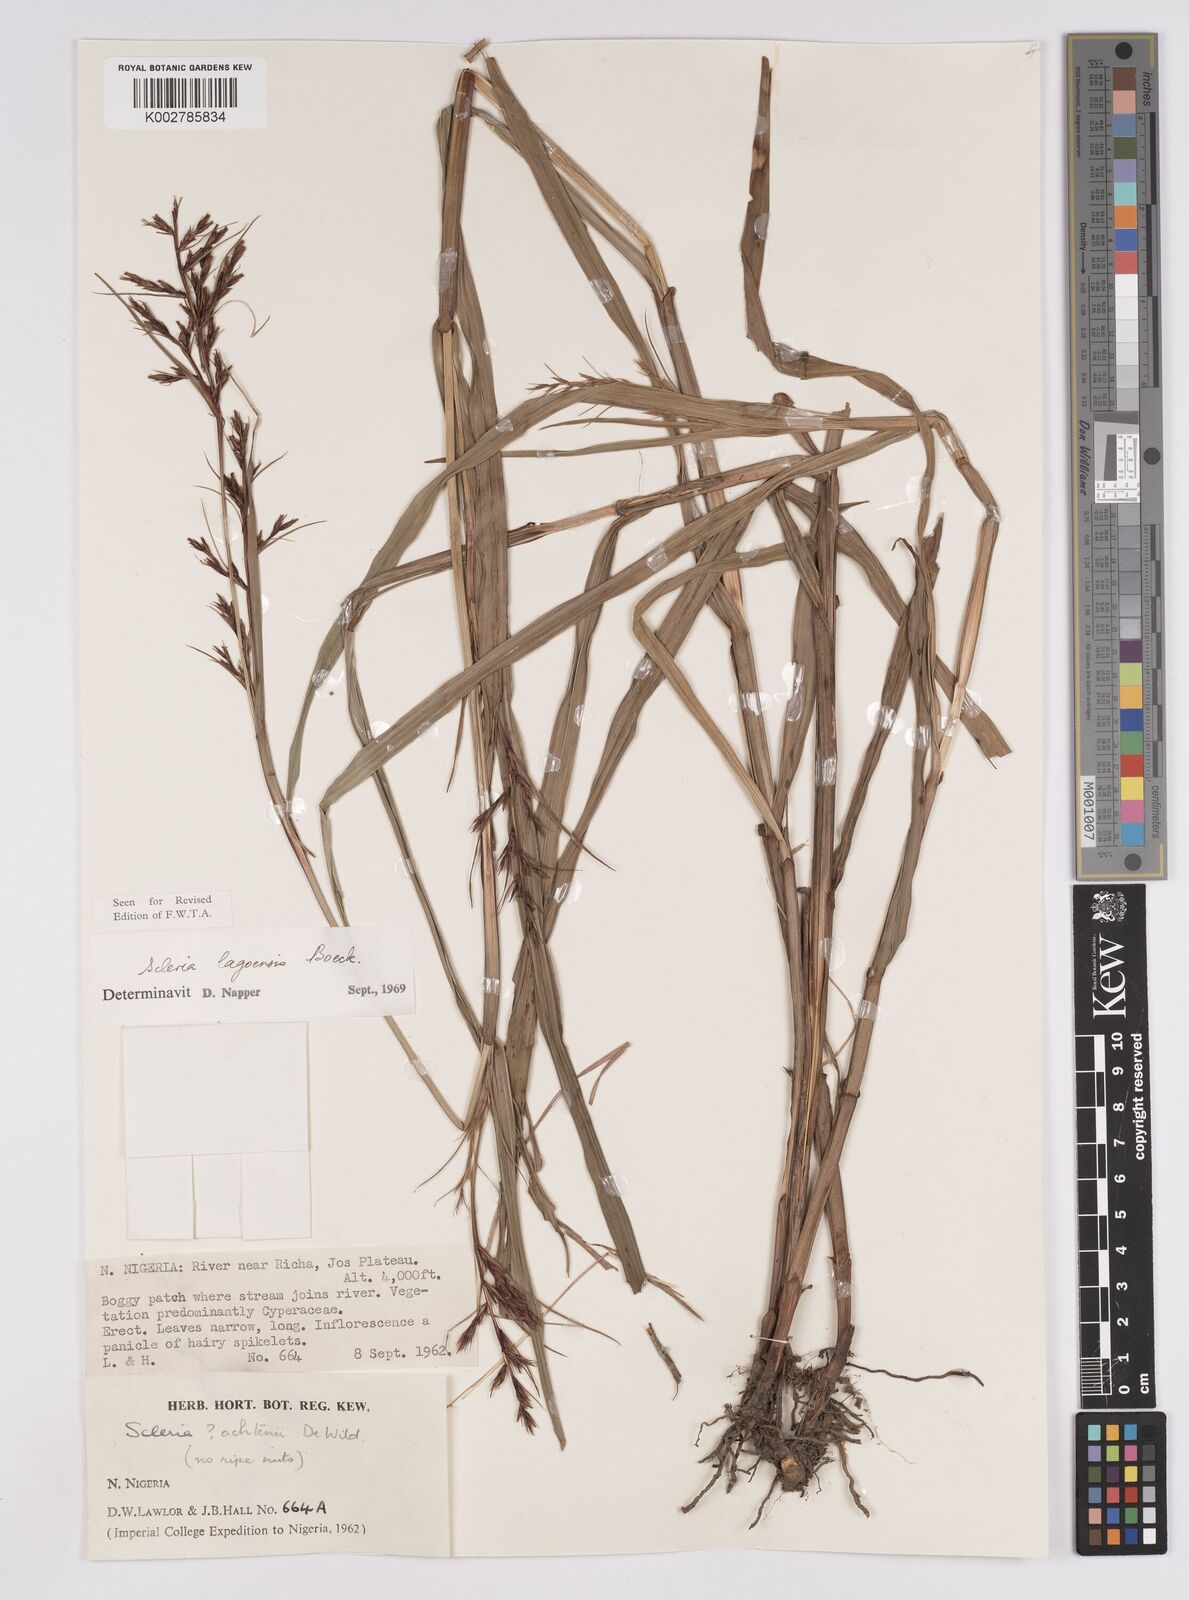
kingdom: Plantae
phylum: Tracheophyta
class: Liliopsida
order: Poales
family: Cyperaceae
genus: Scleria
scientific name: Scleria lagoensis
